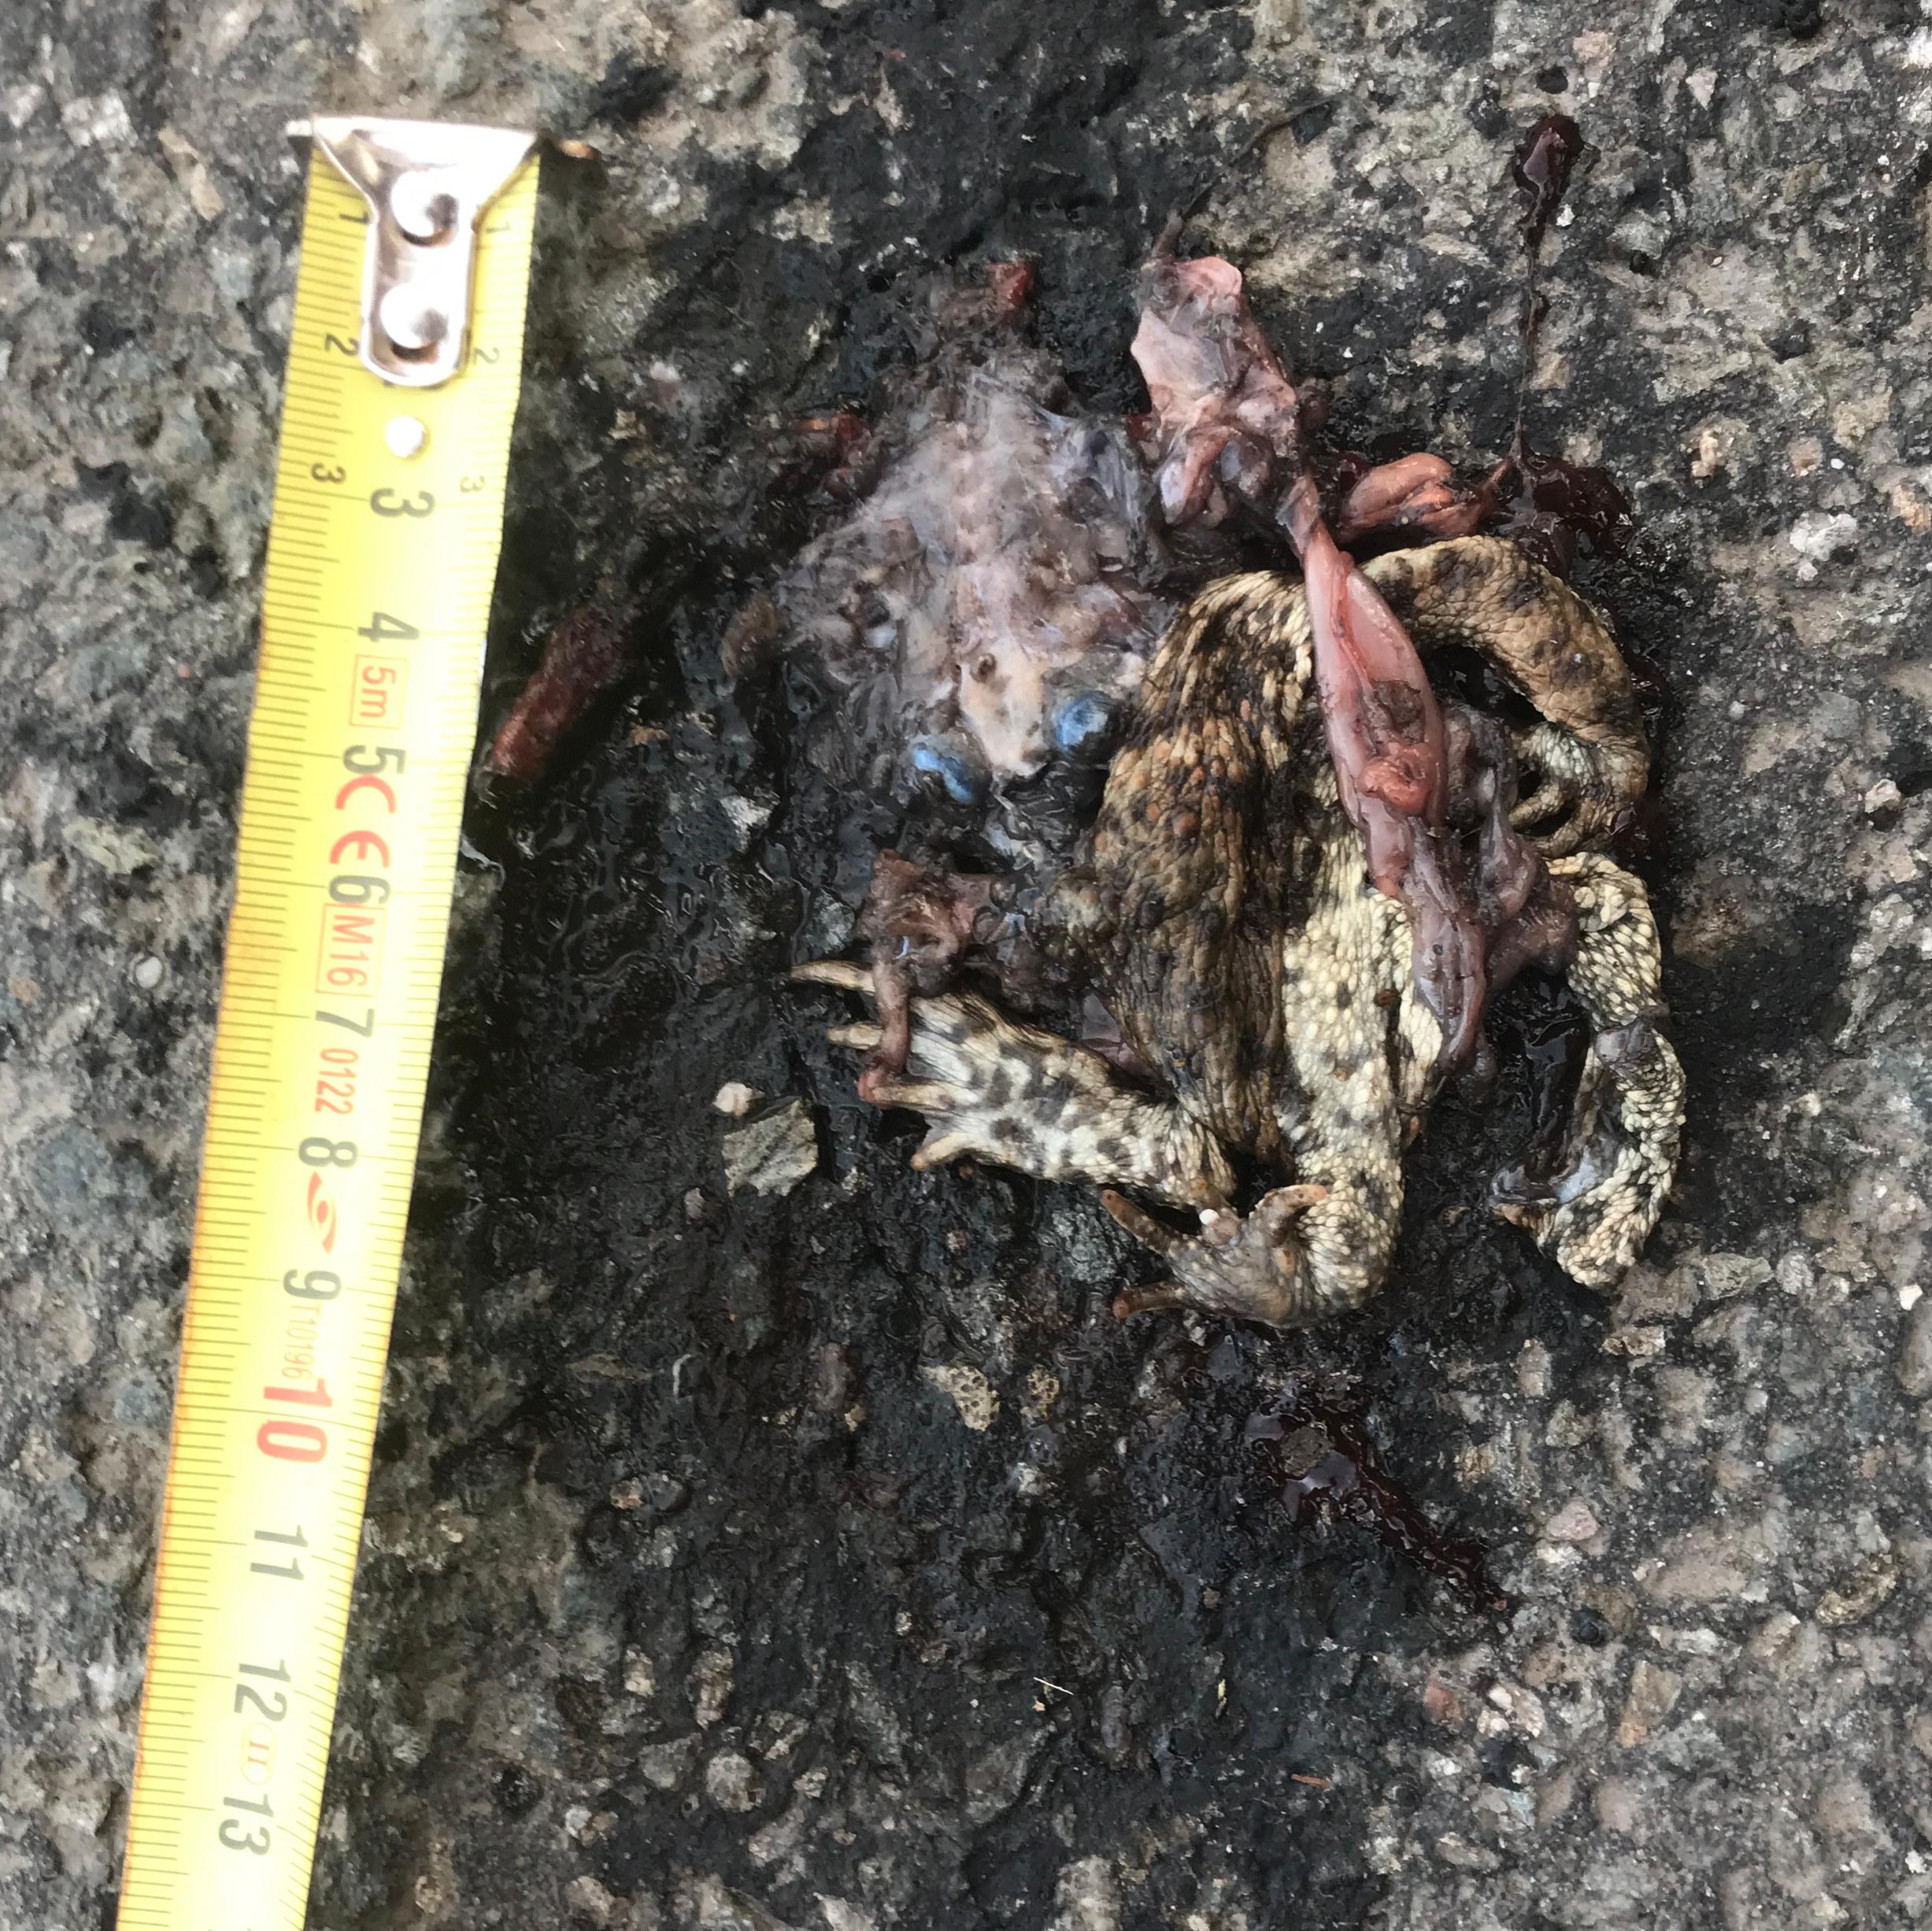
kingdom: Animalia
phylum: Chordata
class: Amphibia
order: Anura
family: Bufonidae
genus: Bufo
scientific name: Bufo bufo
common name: Common toad
